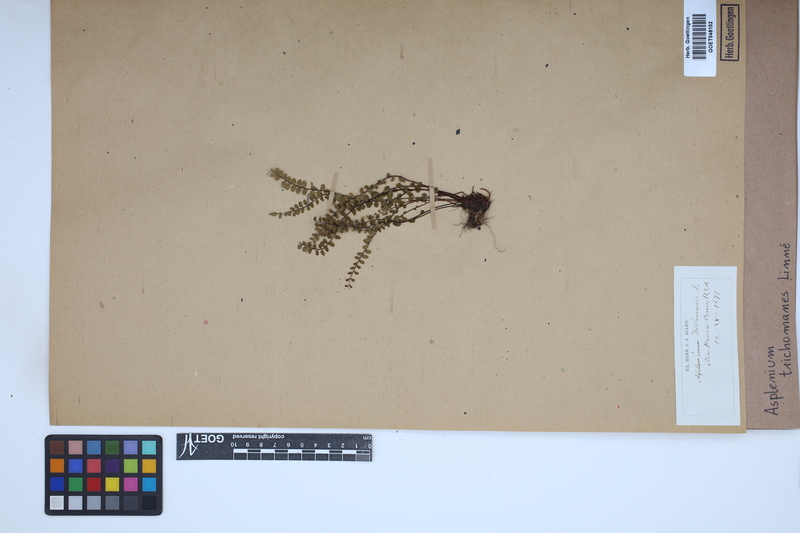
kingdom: Plantae
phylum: Tracheophyta
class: Polypodiopsida
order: Polypodiales
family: Aspleniaceae
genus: Asplenium
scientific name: Asplenium trichomanes
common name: Maidenhair spleenwort
